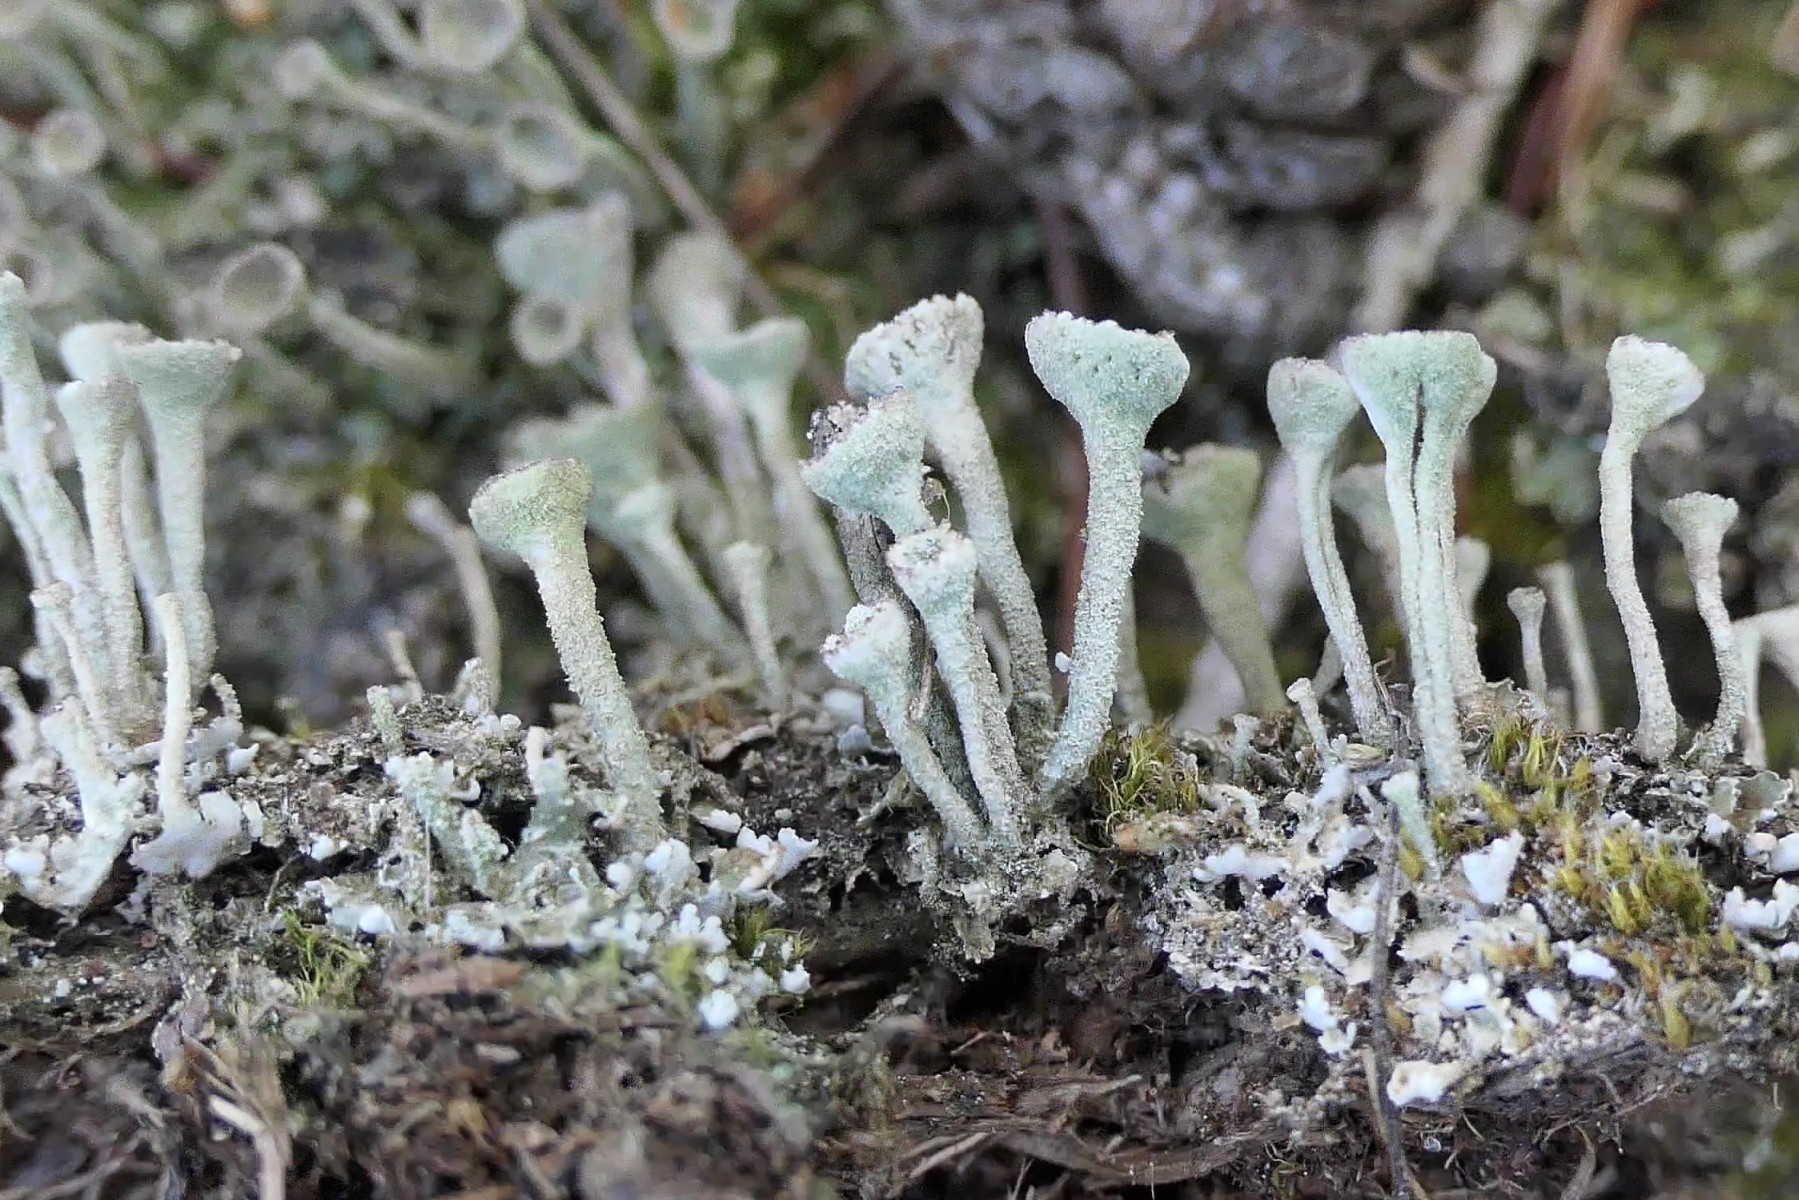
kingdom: Fungi
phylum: Ascomycota
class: Lecanoromycetes
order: Lecanorales
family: Cladoniaceae
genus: Cladonia
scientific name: Cladonia fimbriata
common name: bleggrøn bægerlav
